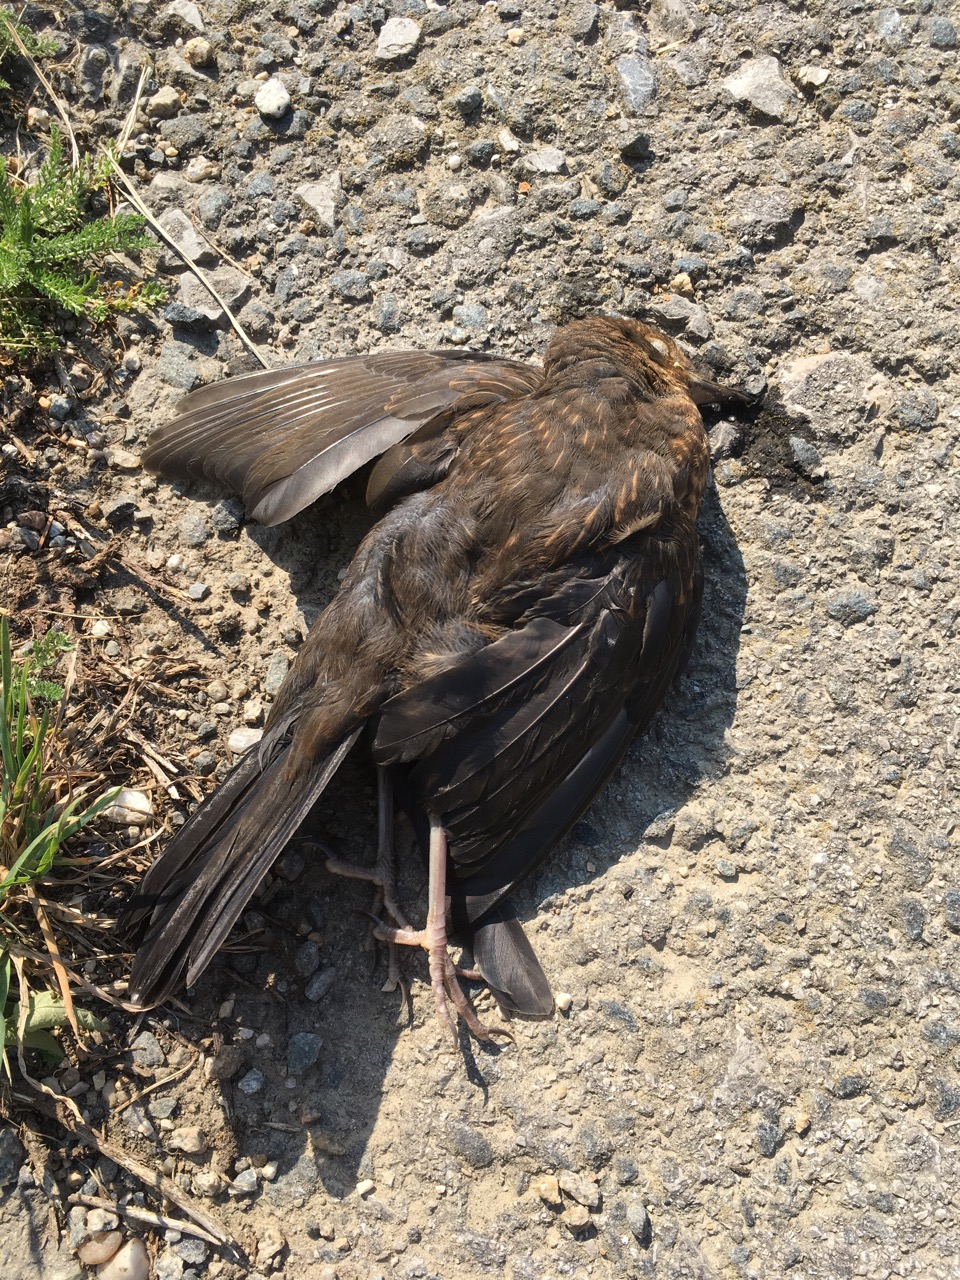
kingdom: Animalia
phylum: Chordata
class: Aves
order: Passeriformes
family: Turdidae
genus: Turdus
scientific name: Turdus merula
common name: Common blackbird
